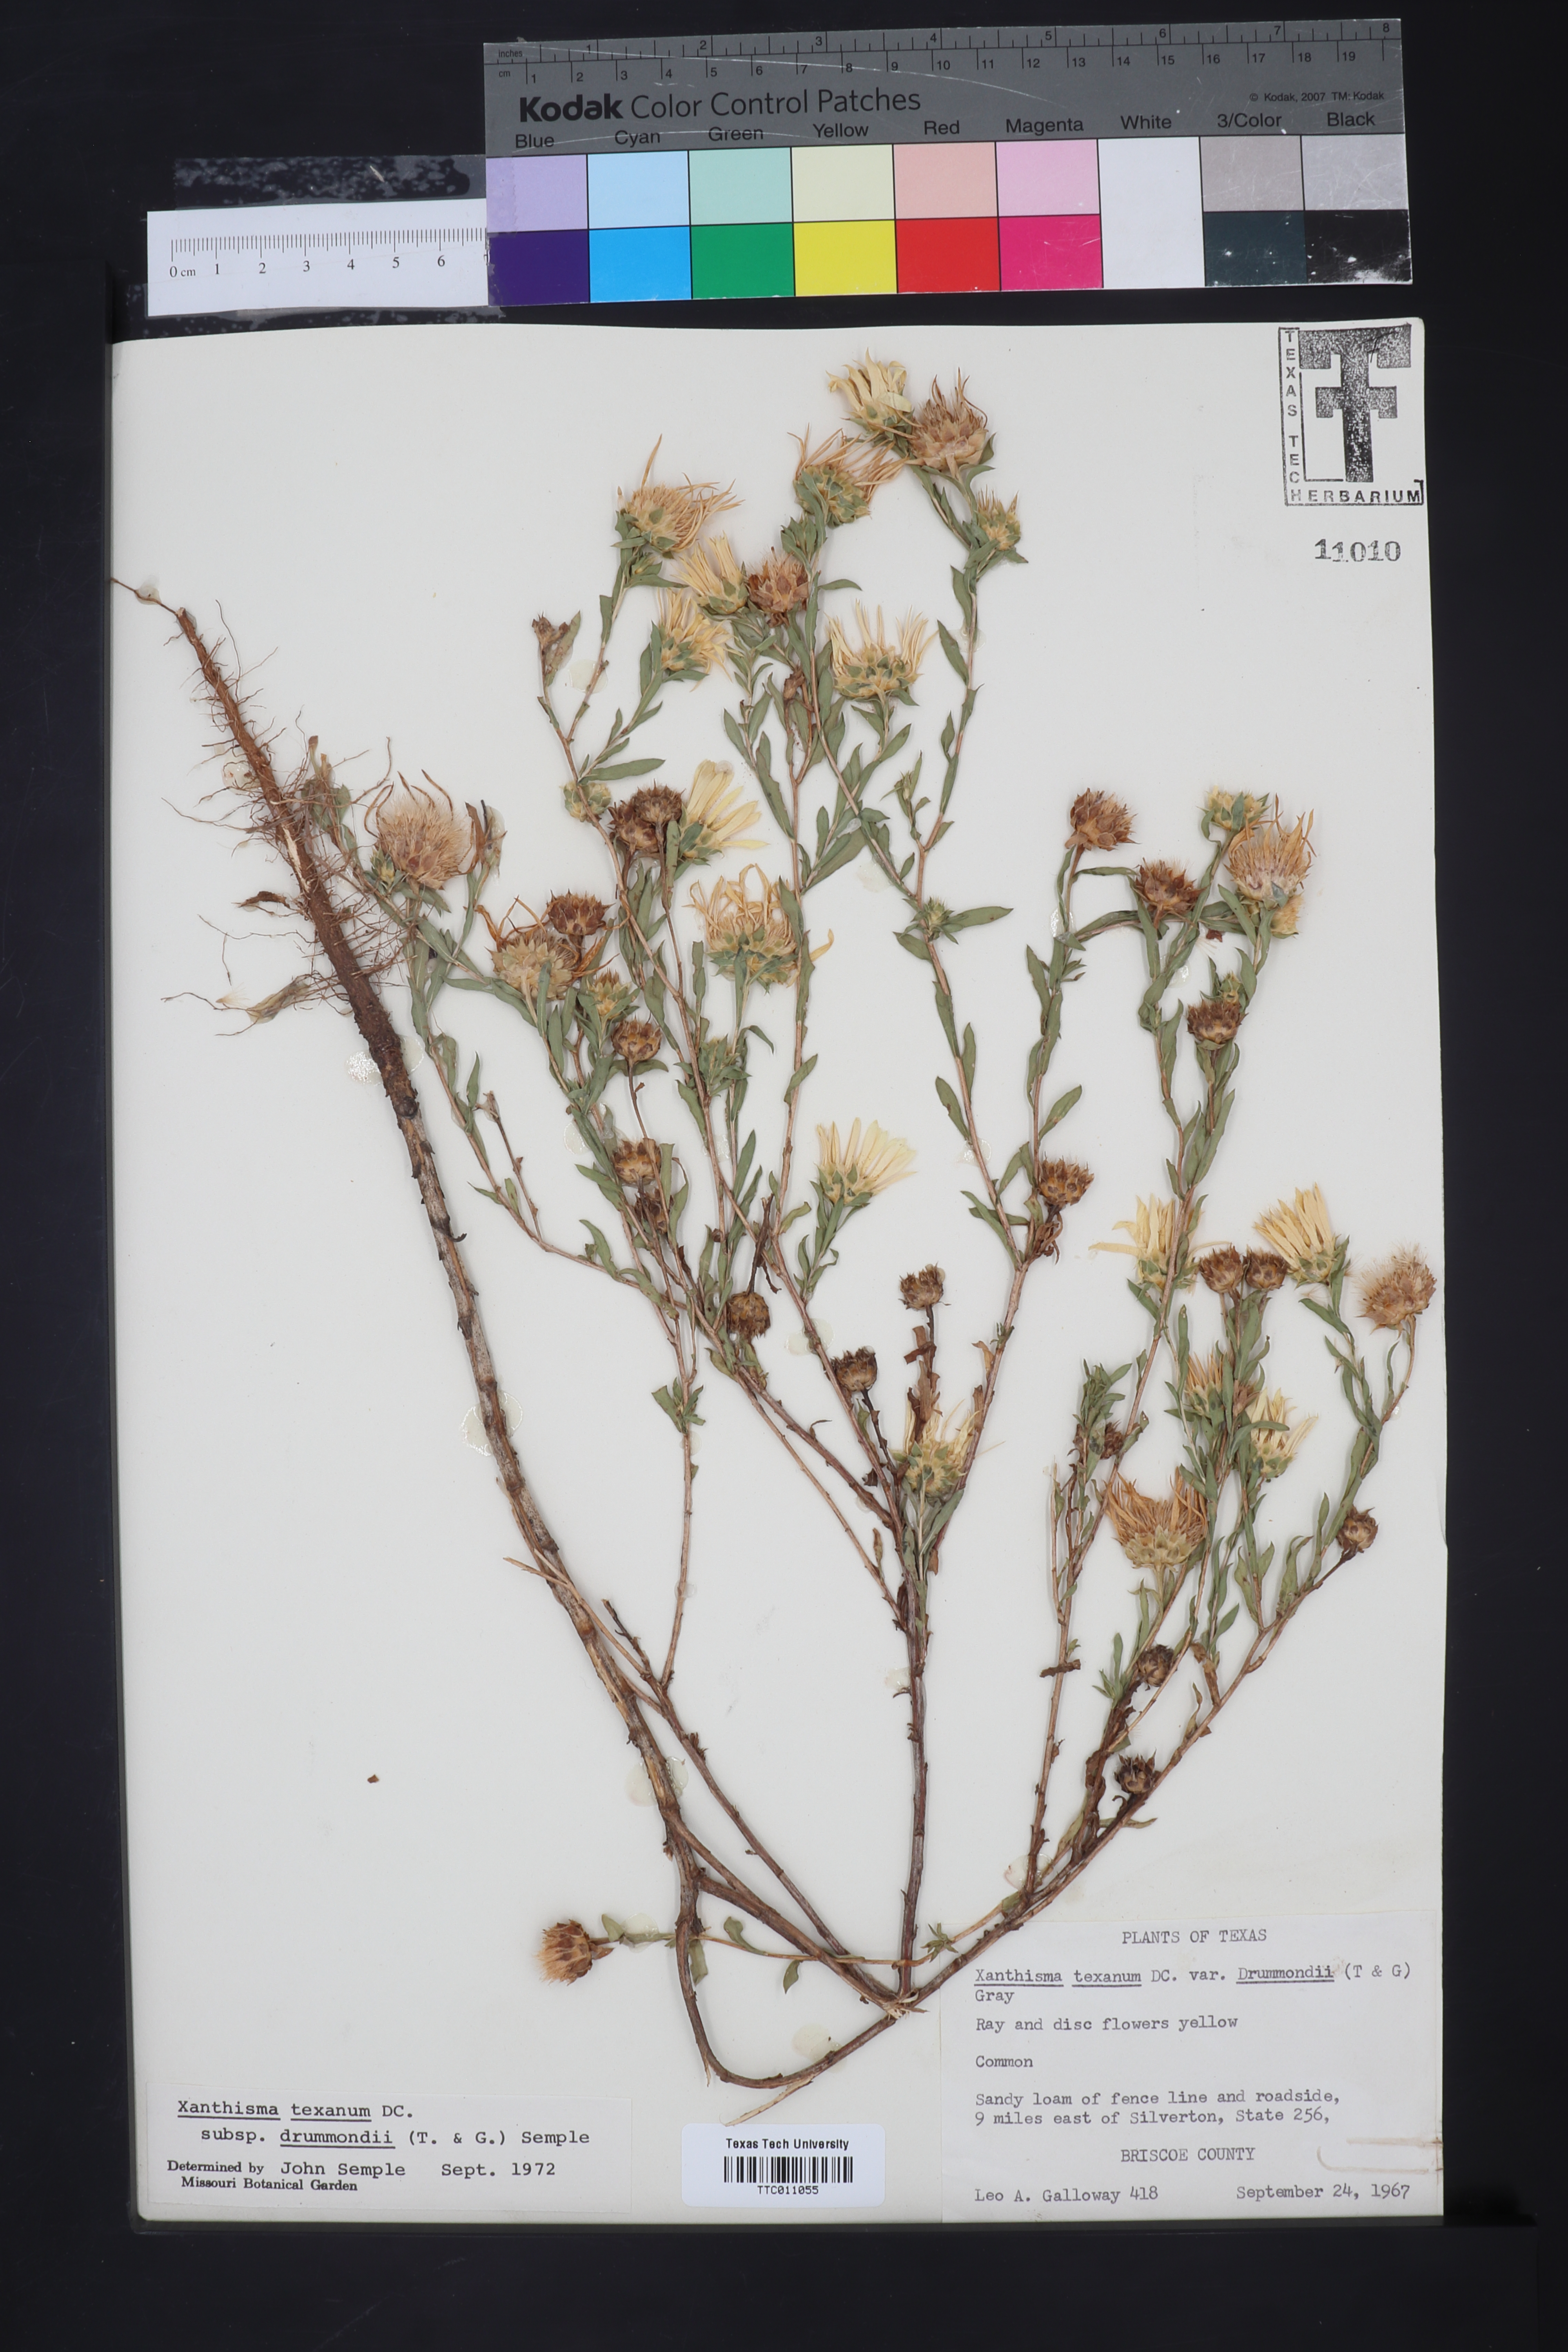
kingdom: Plantae
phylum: Tracheophyta
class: Magnoliopsida
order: Asterales
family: Asteraceae
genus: Xanthisma
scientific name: Xanthisma texanum
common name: Texas sleepy daisy
